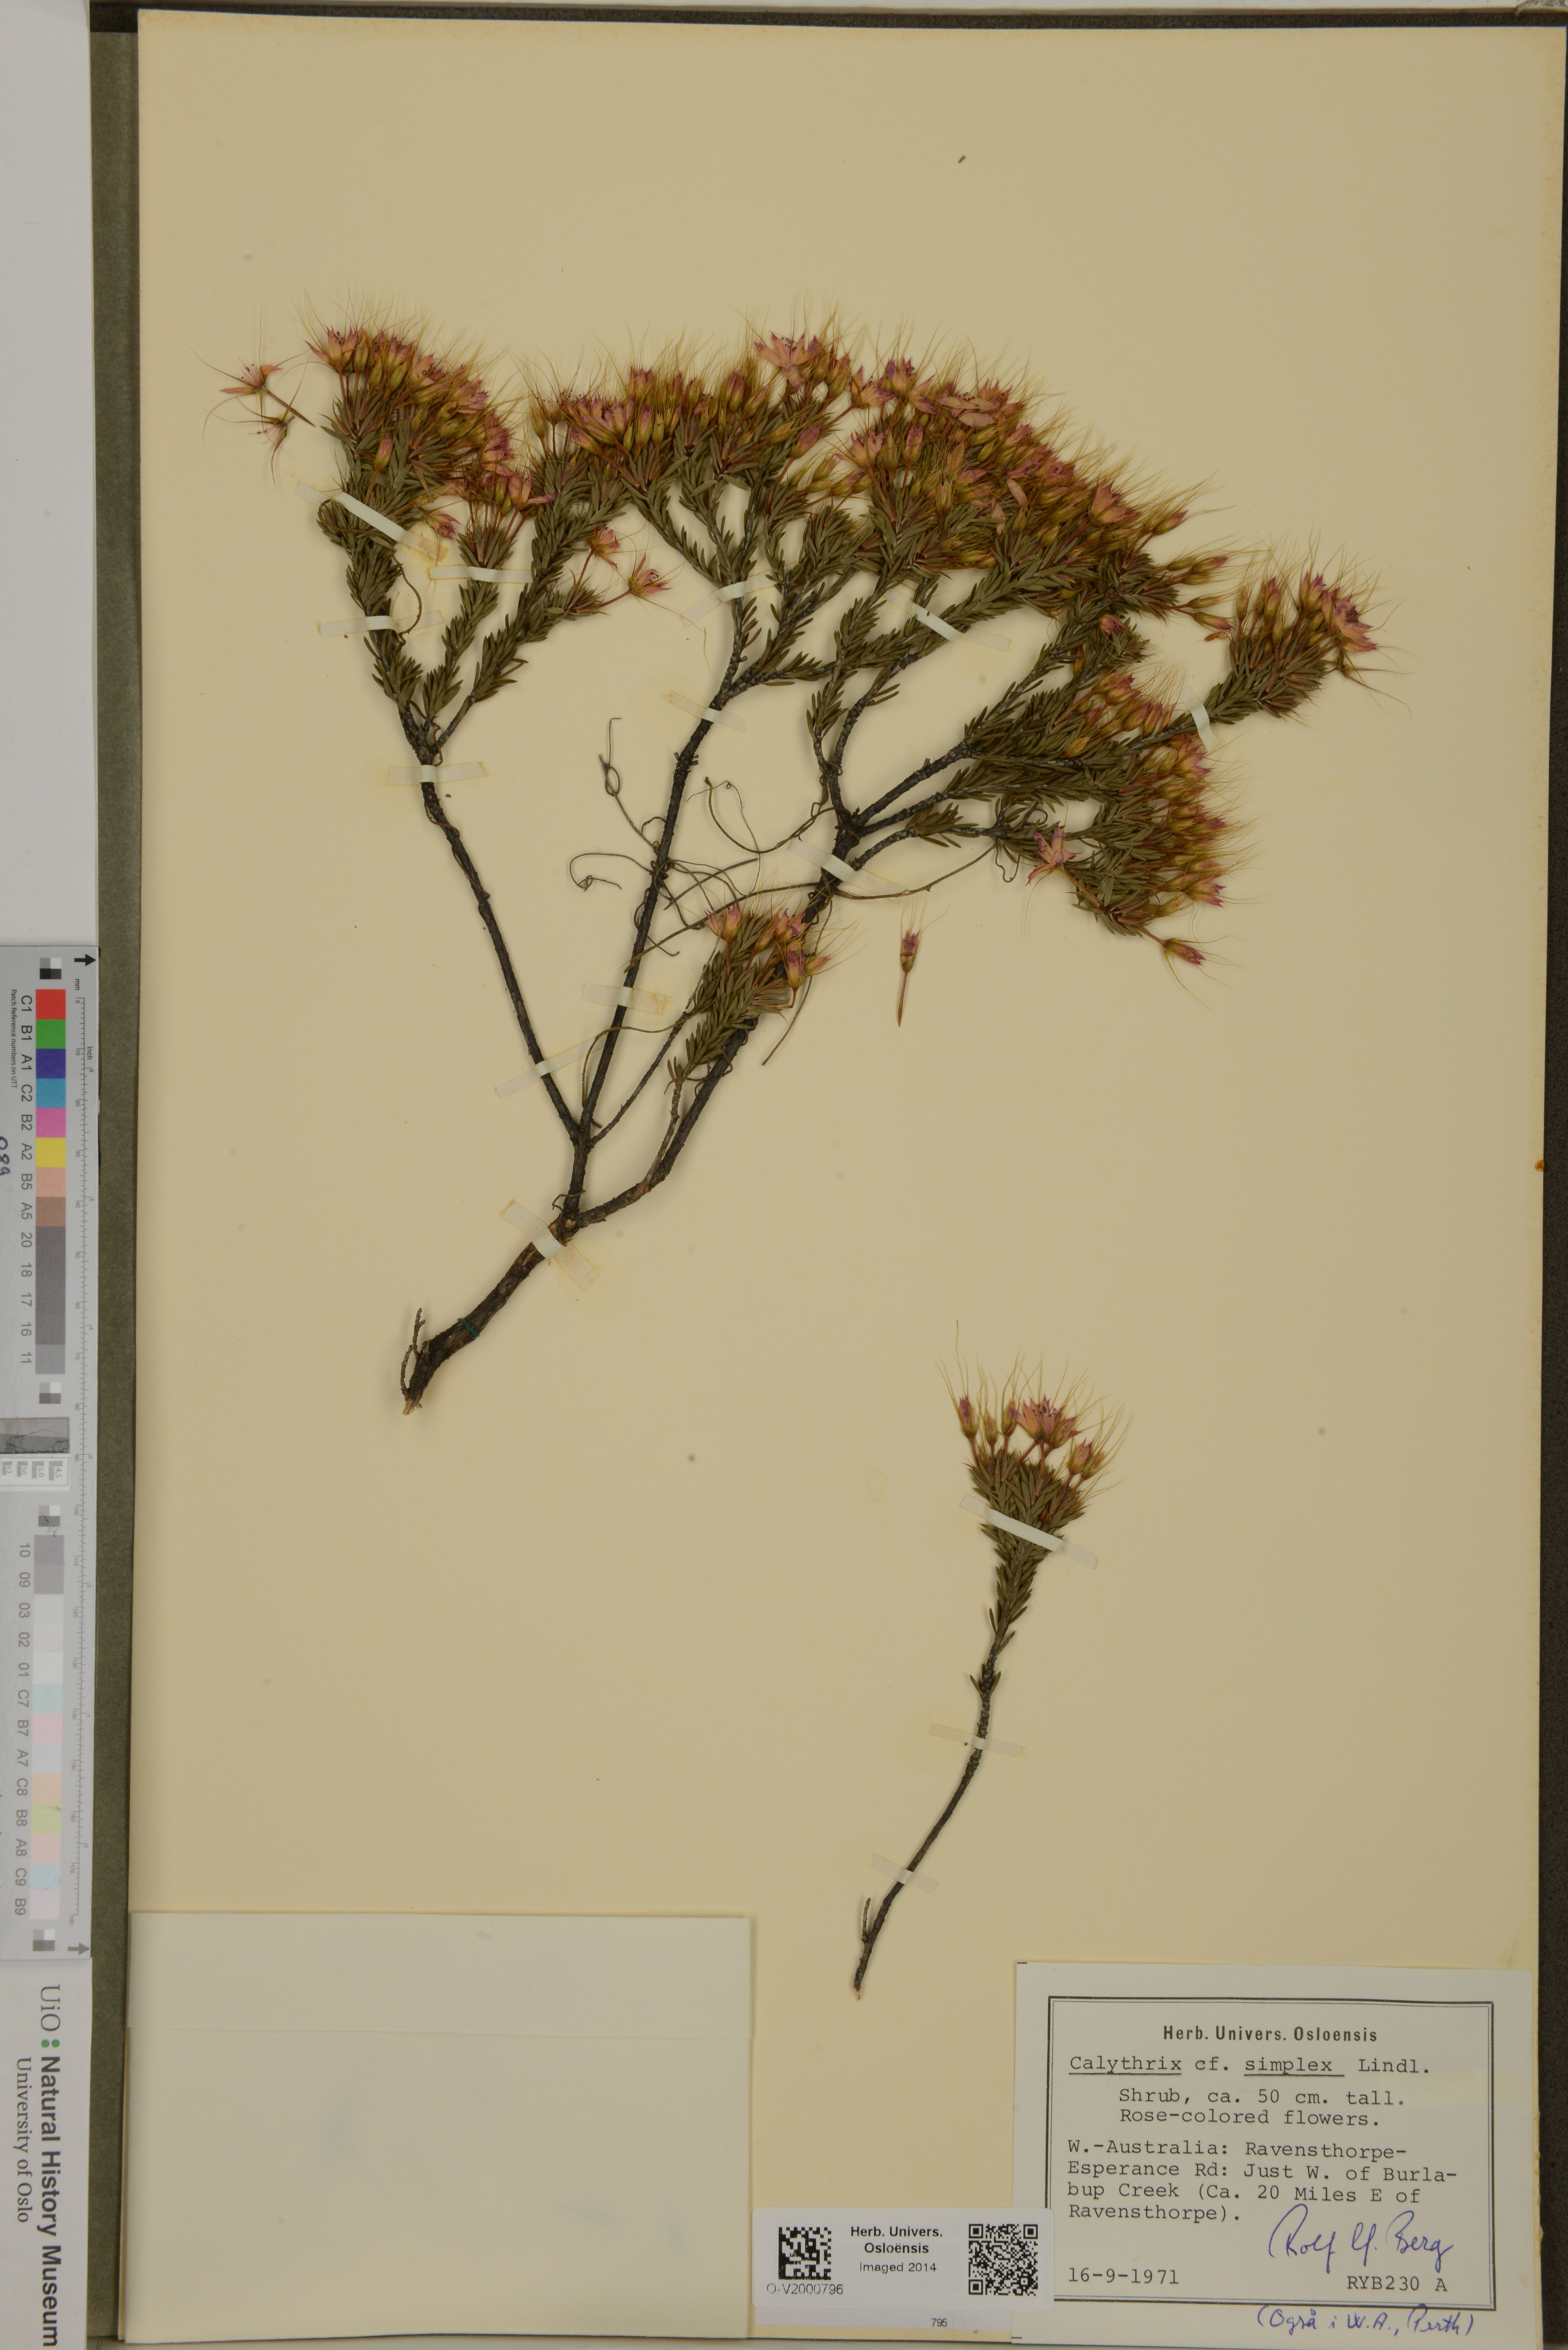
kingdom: Plantae
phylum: Tracheophyta
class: Magnoliopsida
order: Myrtales
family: Myrtaceae
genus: Calytrix
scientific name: Calytrix
